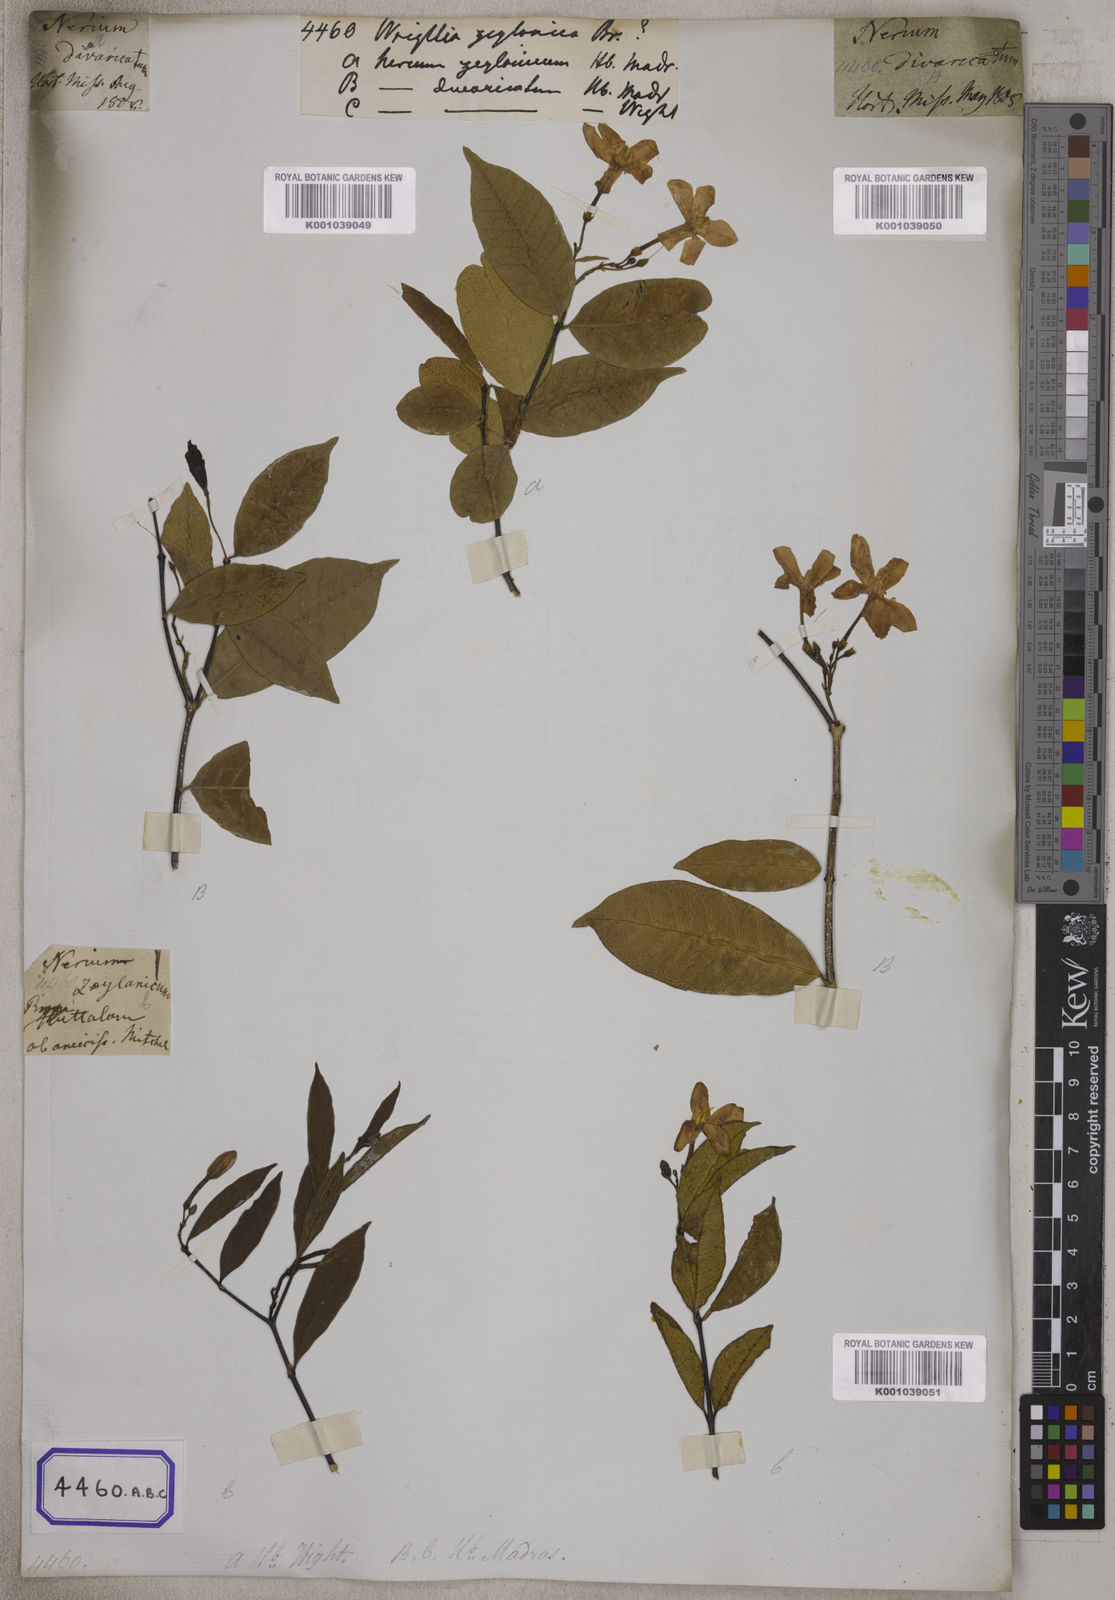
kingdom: Plantae
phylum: Tracheophyta
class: Magnoliopsida
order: Gentianales
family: Apocynaceae
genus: Wrightia
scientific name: Wrightia antidysenterica
